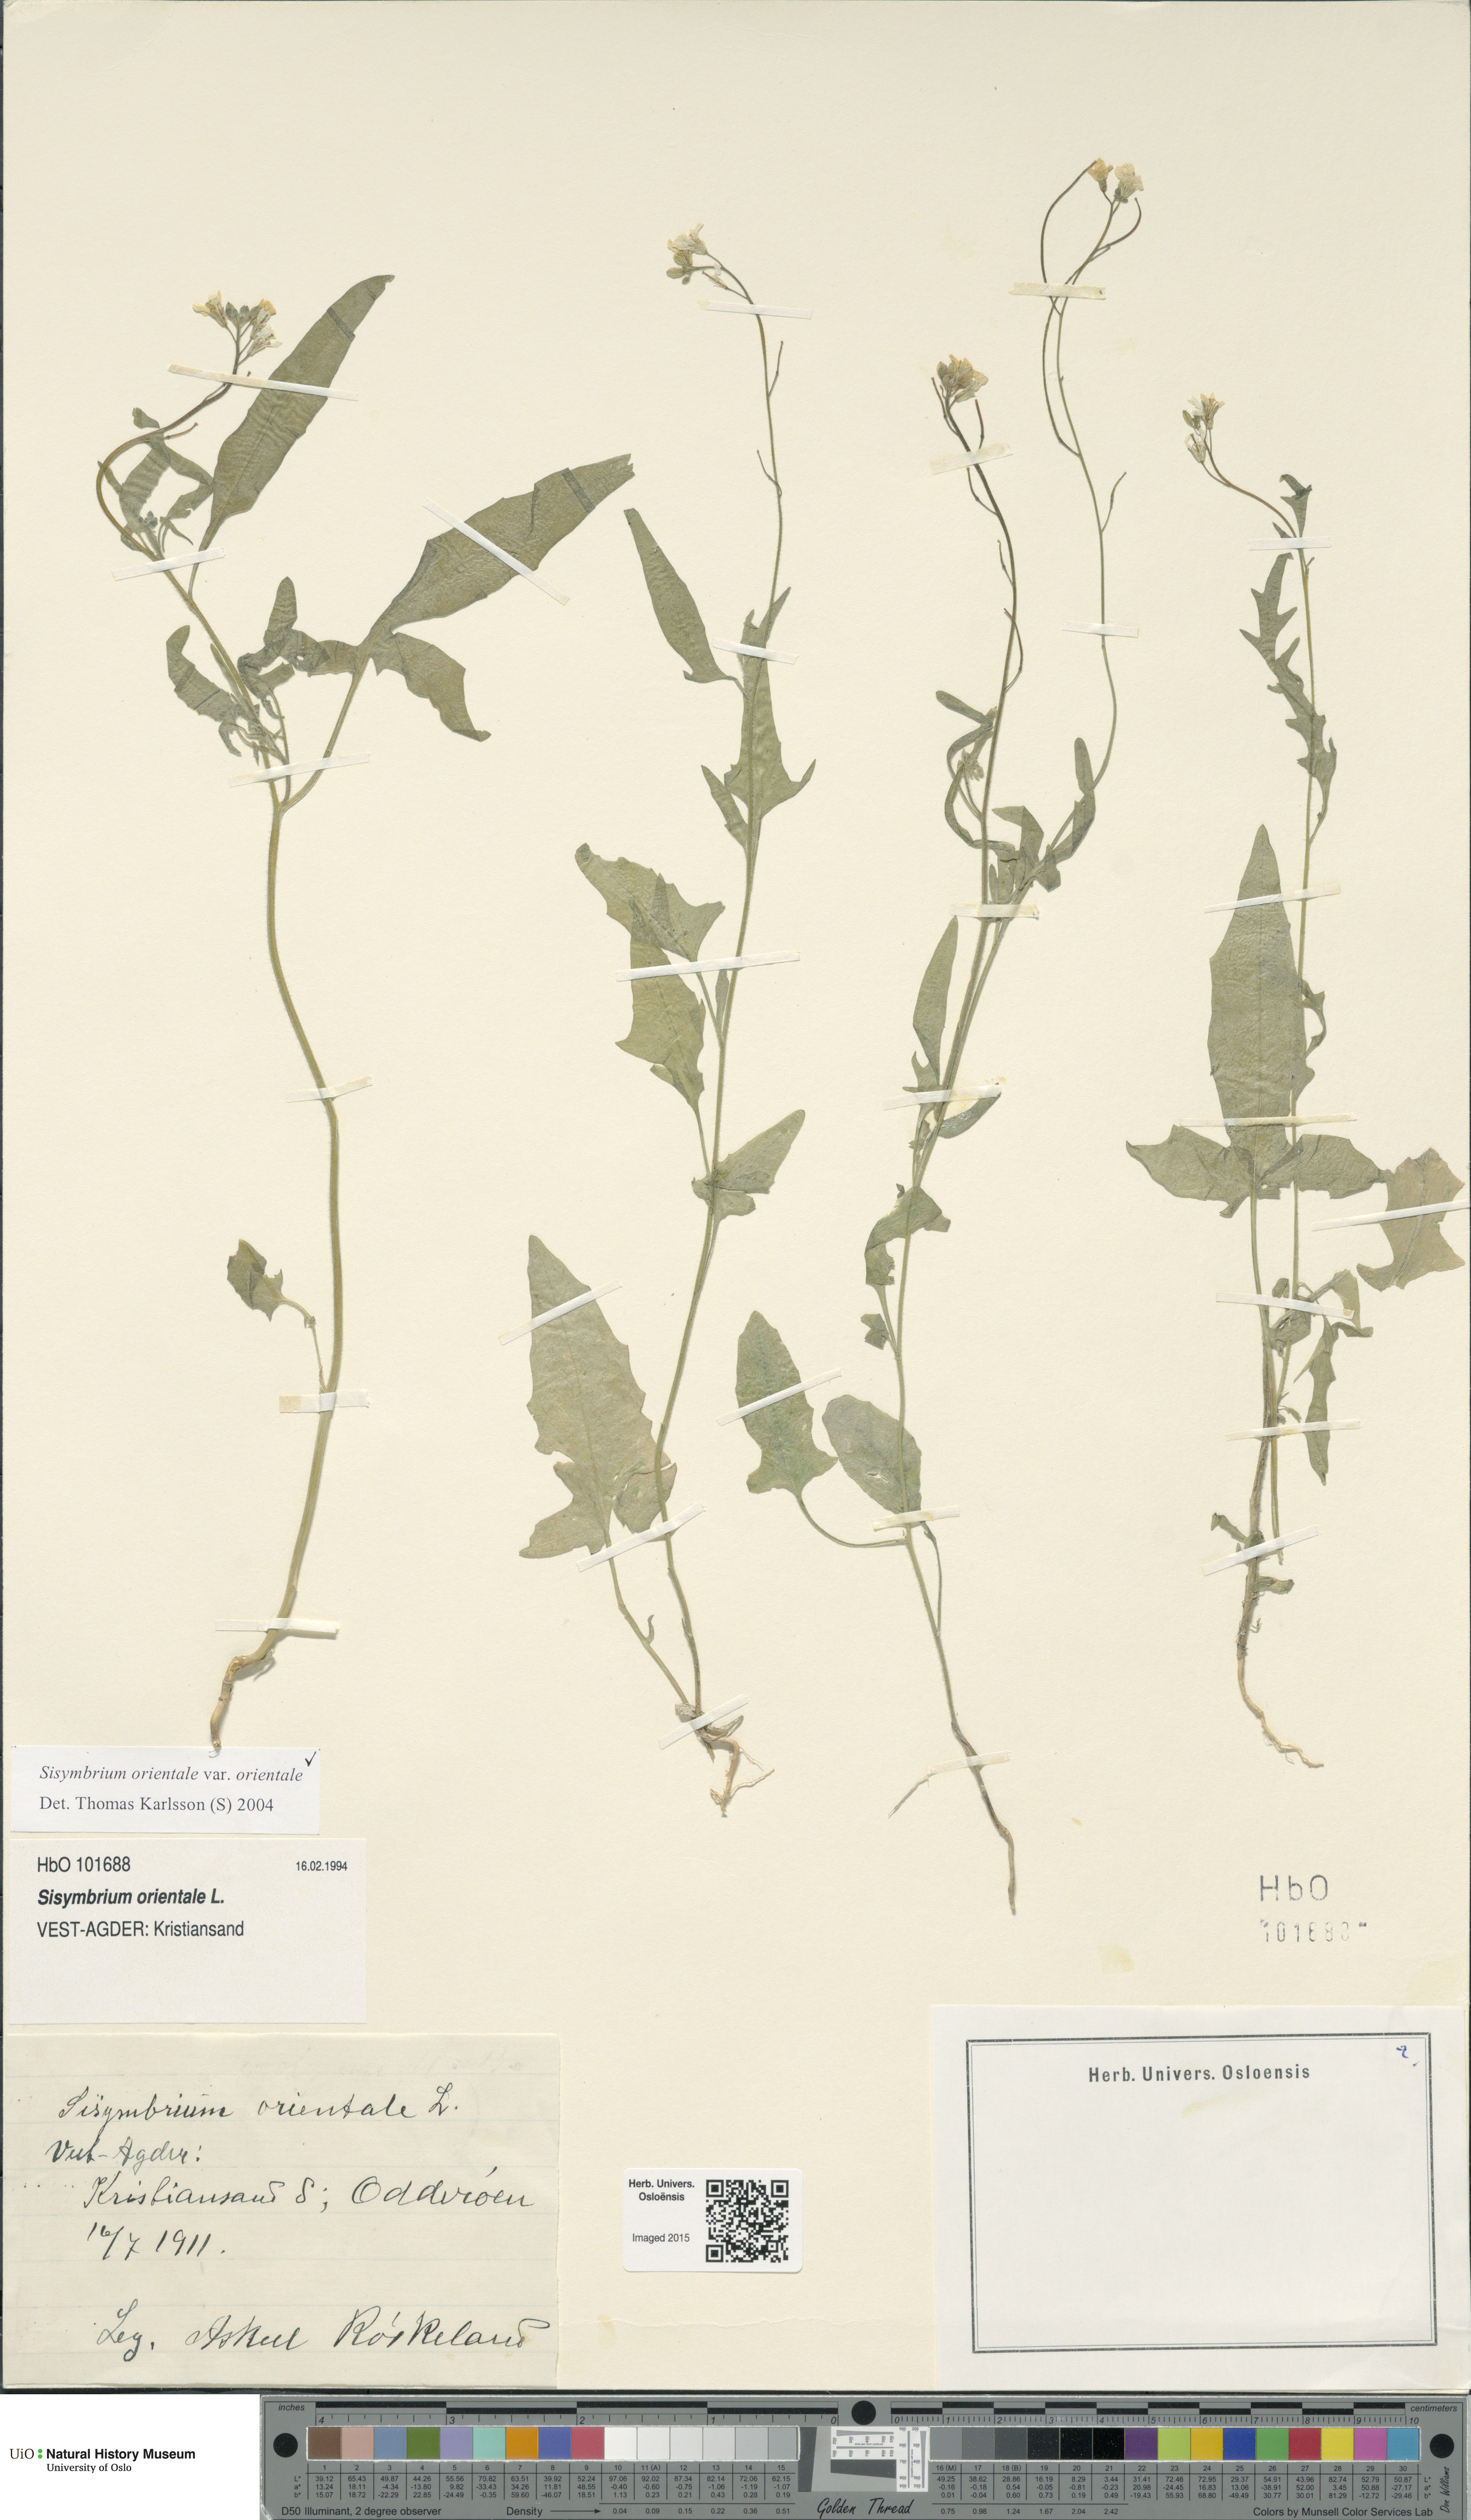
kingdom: Plantae
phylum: Tracheophyta
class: Magnoliopsida
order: Brassicales
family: Brassicaceae
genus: Sisymbrium
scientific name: Sisymbrium orientale
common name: Eastern rocket
